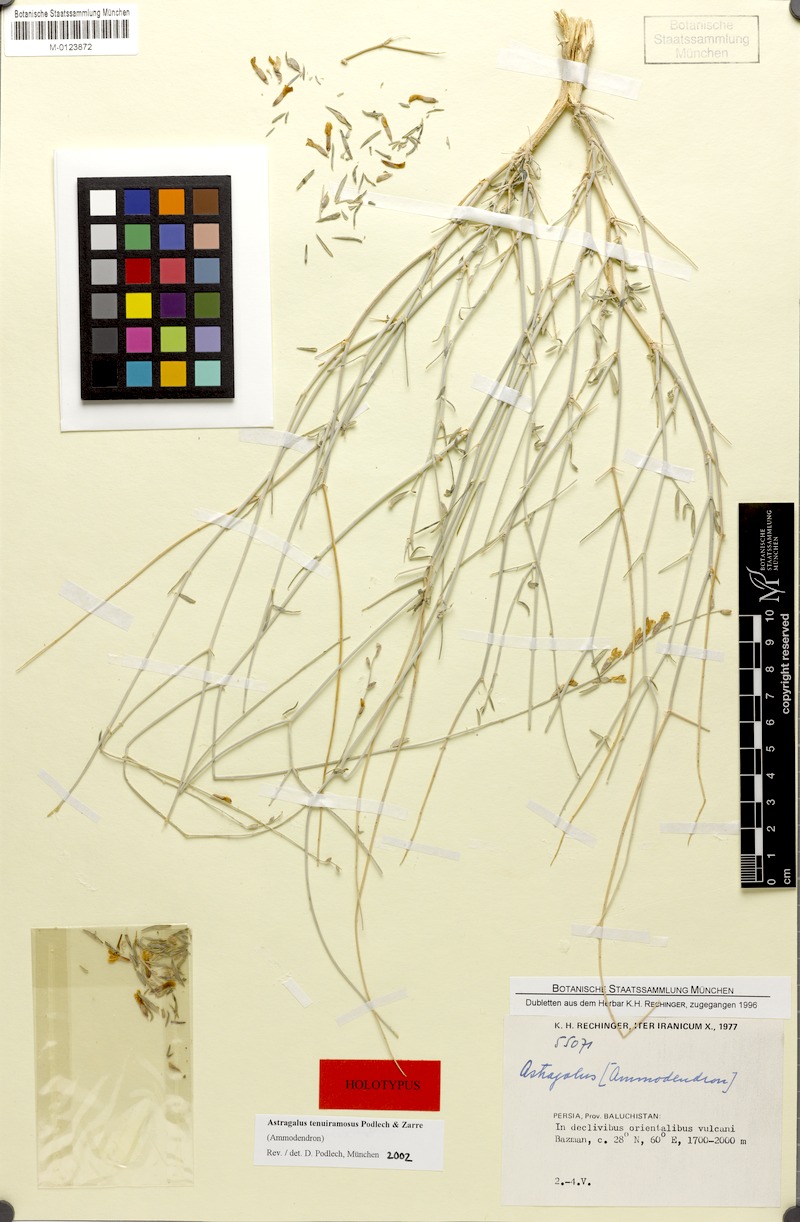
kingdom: Plantae
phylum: Tracheophyta
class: Magnoliopsida
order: Fabales
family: Fabaceae
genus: Astragalus
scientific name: Astragalus tenuiramosus
